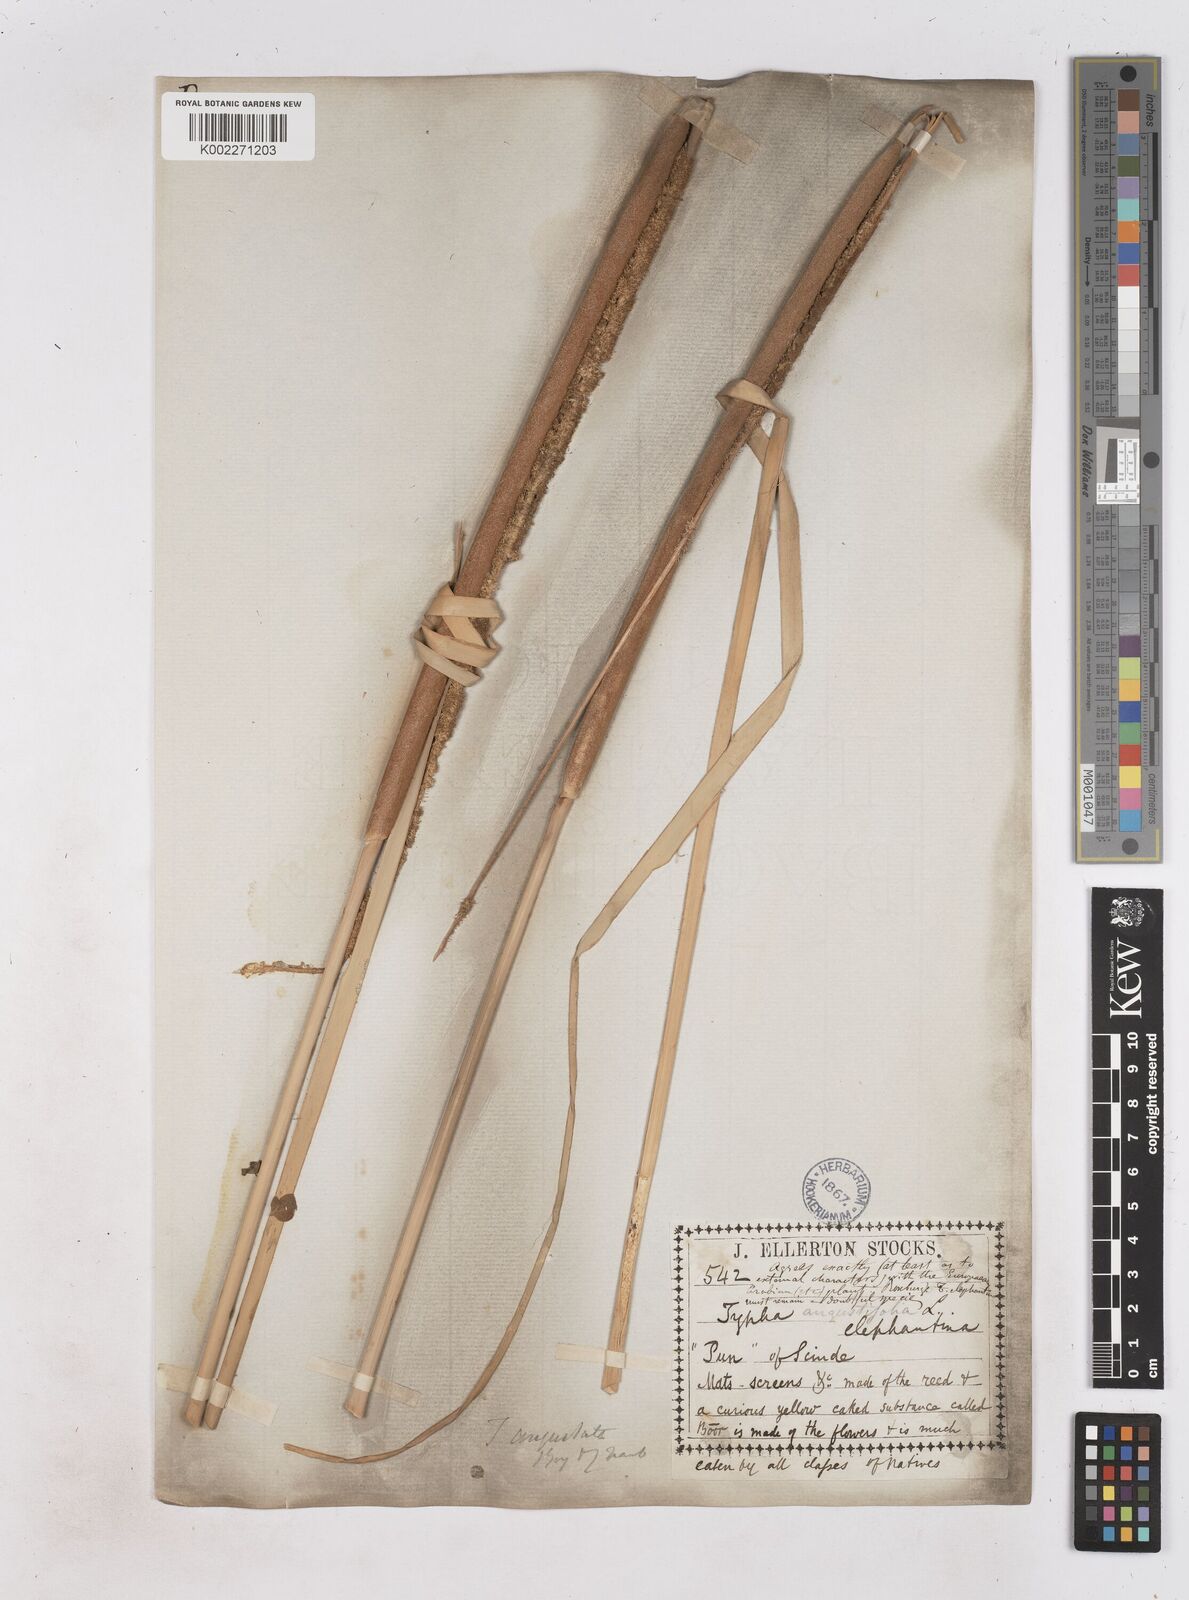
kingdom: Plantae
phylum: Tracheophyta
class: Liliopsida
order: Poales
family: Typhaceae
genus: Typha
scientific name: Typha domingensis
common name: Southern cattail
